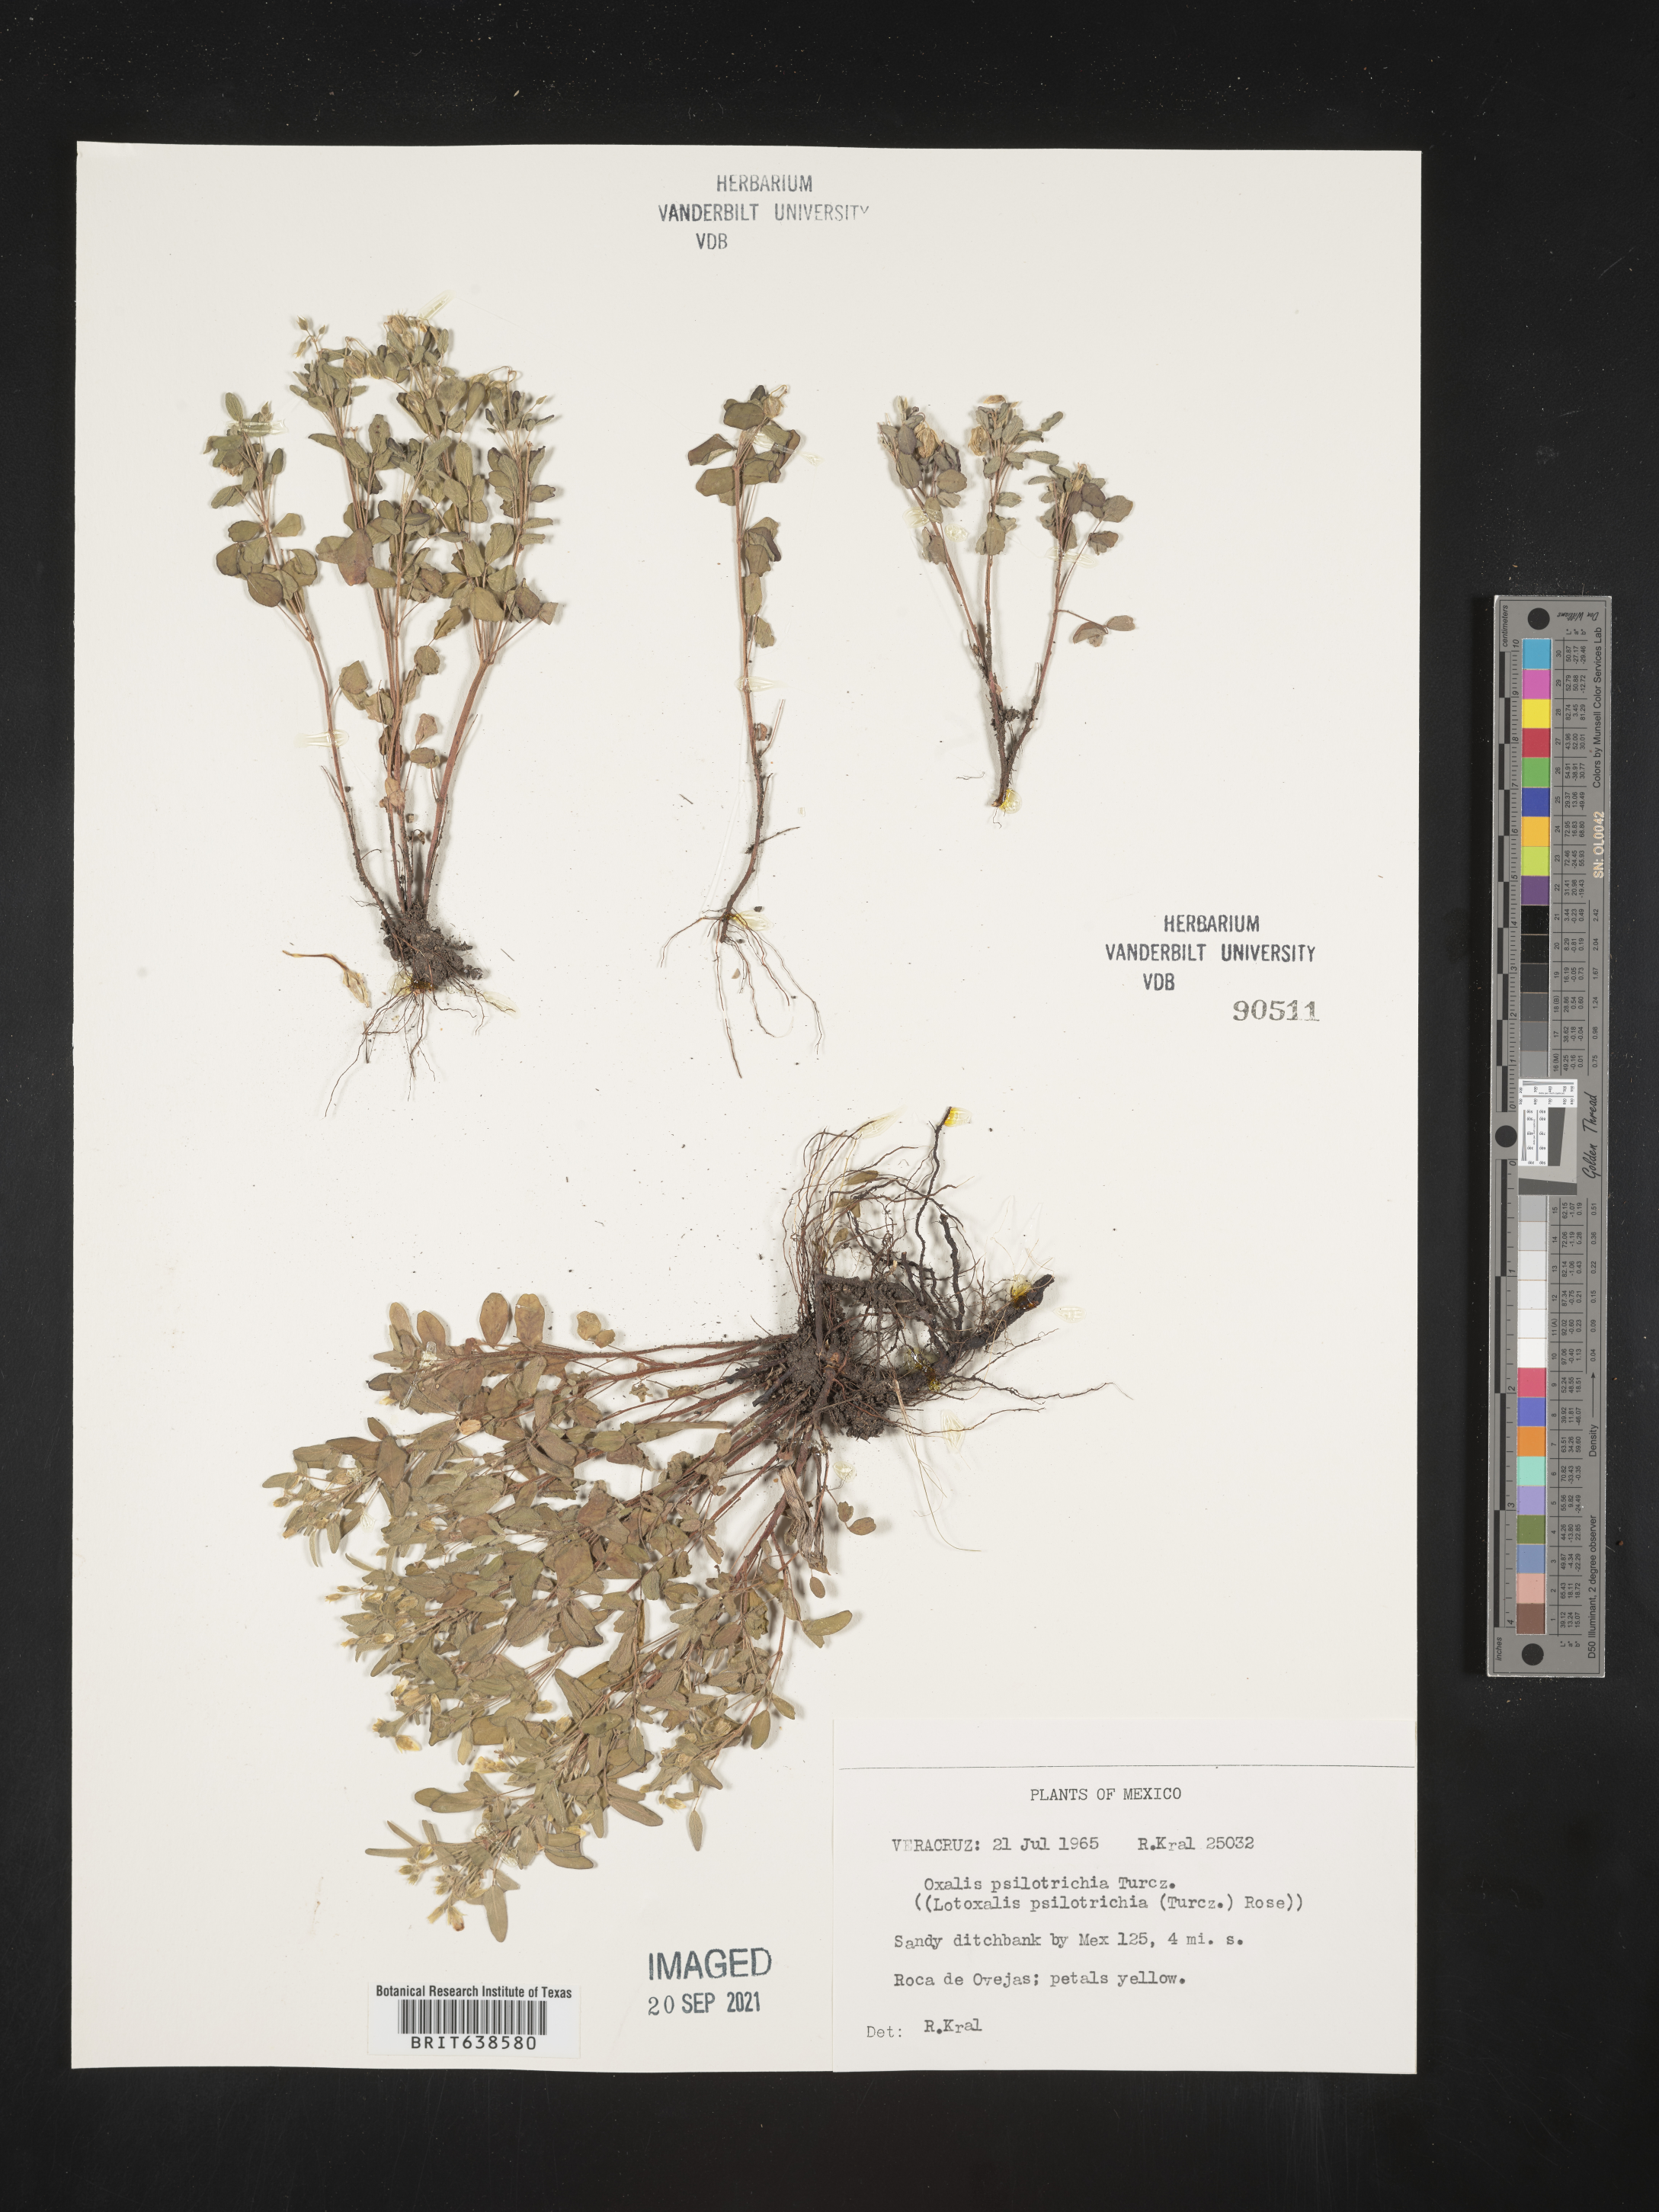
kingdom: Plantae
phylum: Tracheophyta
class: Magnoliopsida
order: Oxalidales
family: Oxalidaceae
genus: Oxalis
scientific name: Oxalis
